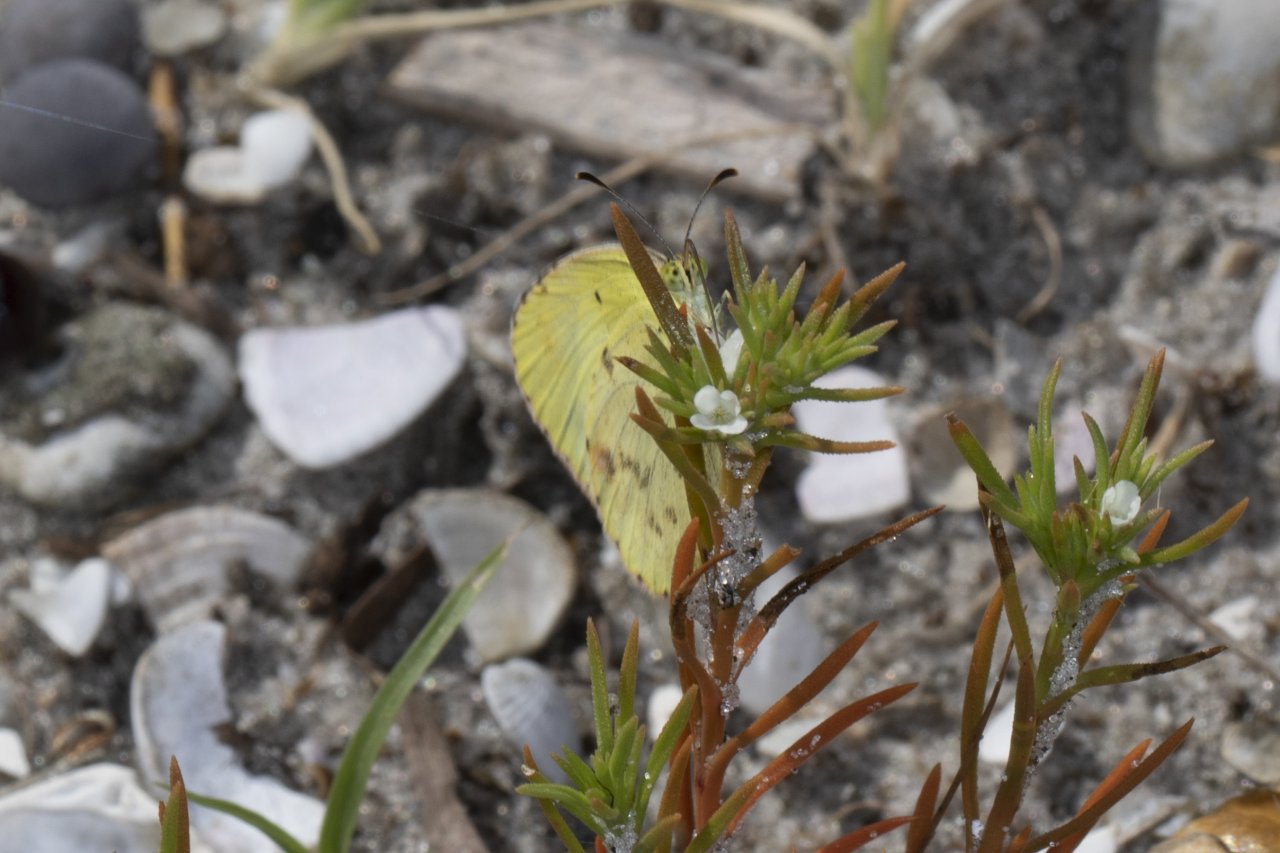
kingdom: Animalia
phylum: Arthropoda
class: Insecta
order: Lepidoptera
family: Pieridae
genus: Pyrisitia
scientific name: Pyrisitia lisa
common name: Little Yellow
